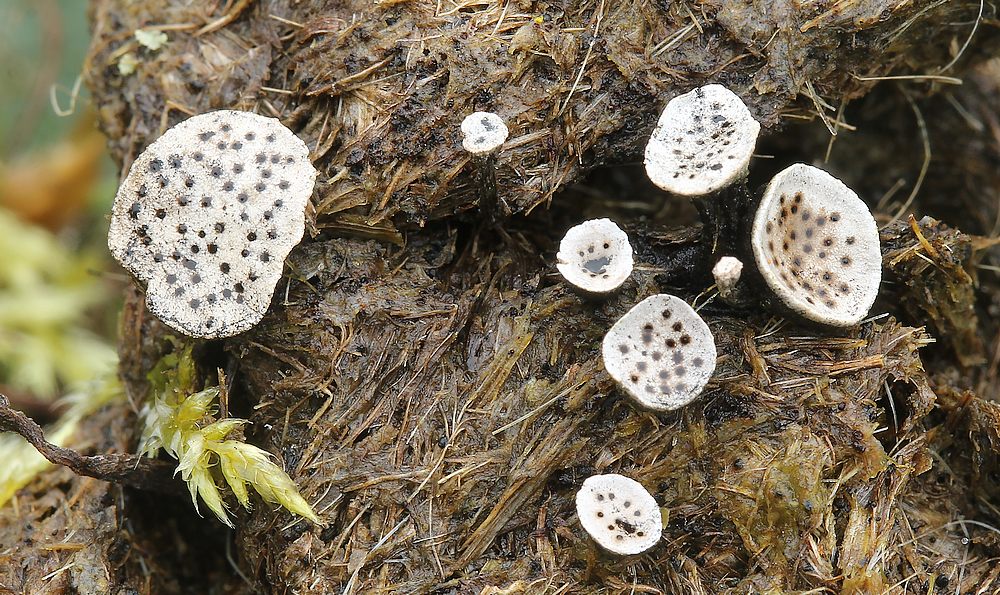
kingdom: Fungi
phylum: Ascomycota
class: Sordariomycetes
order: Xylariales
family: Xylariaceae
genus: Poronia
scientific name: Poronia punctata
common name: stor priksvamp
